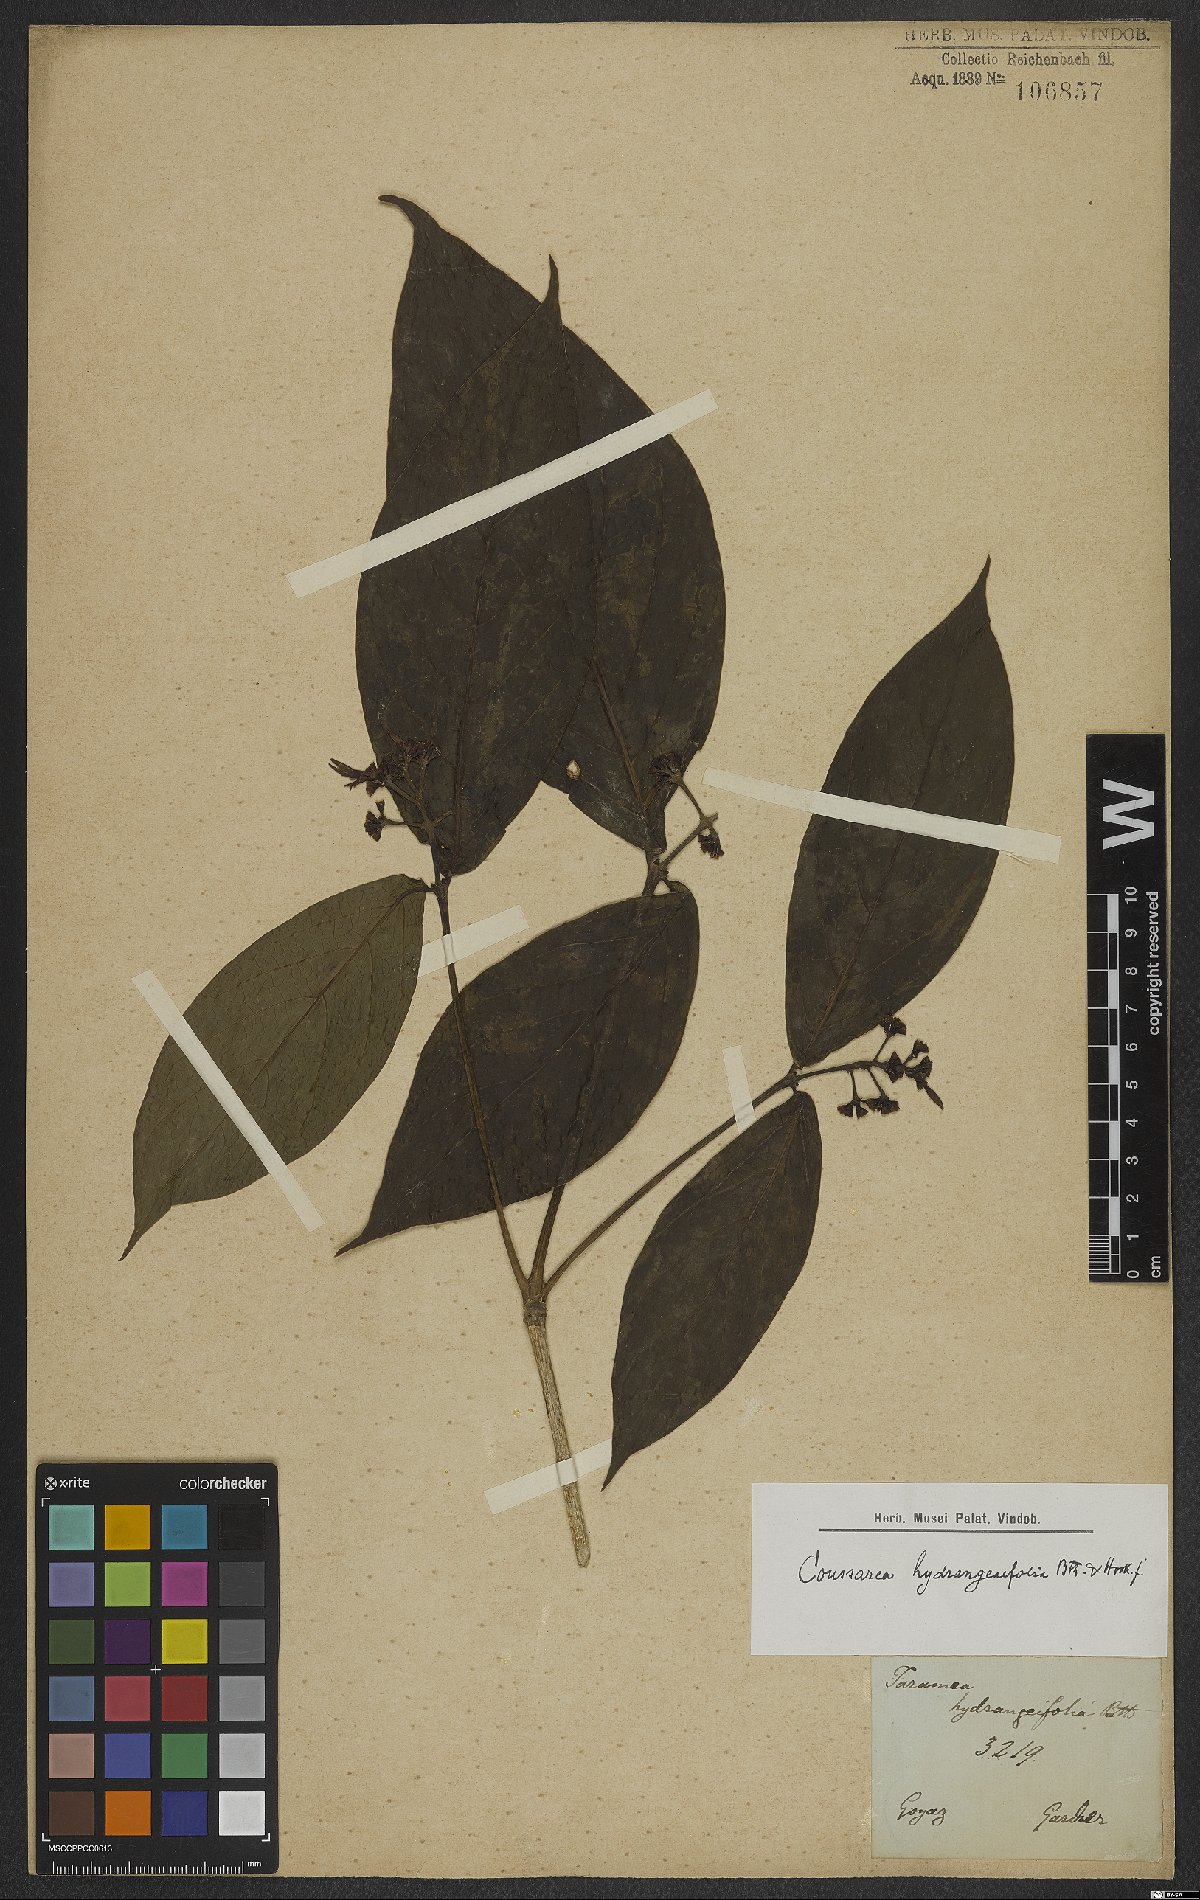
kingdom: Plantae
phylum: Tracheophyta
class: Magnoliopsida
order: Gentianales
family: Rubiaceae
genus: Coussarea
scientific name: Coussarea hydrangeifolia
